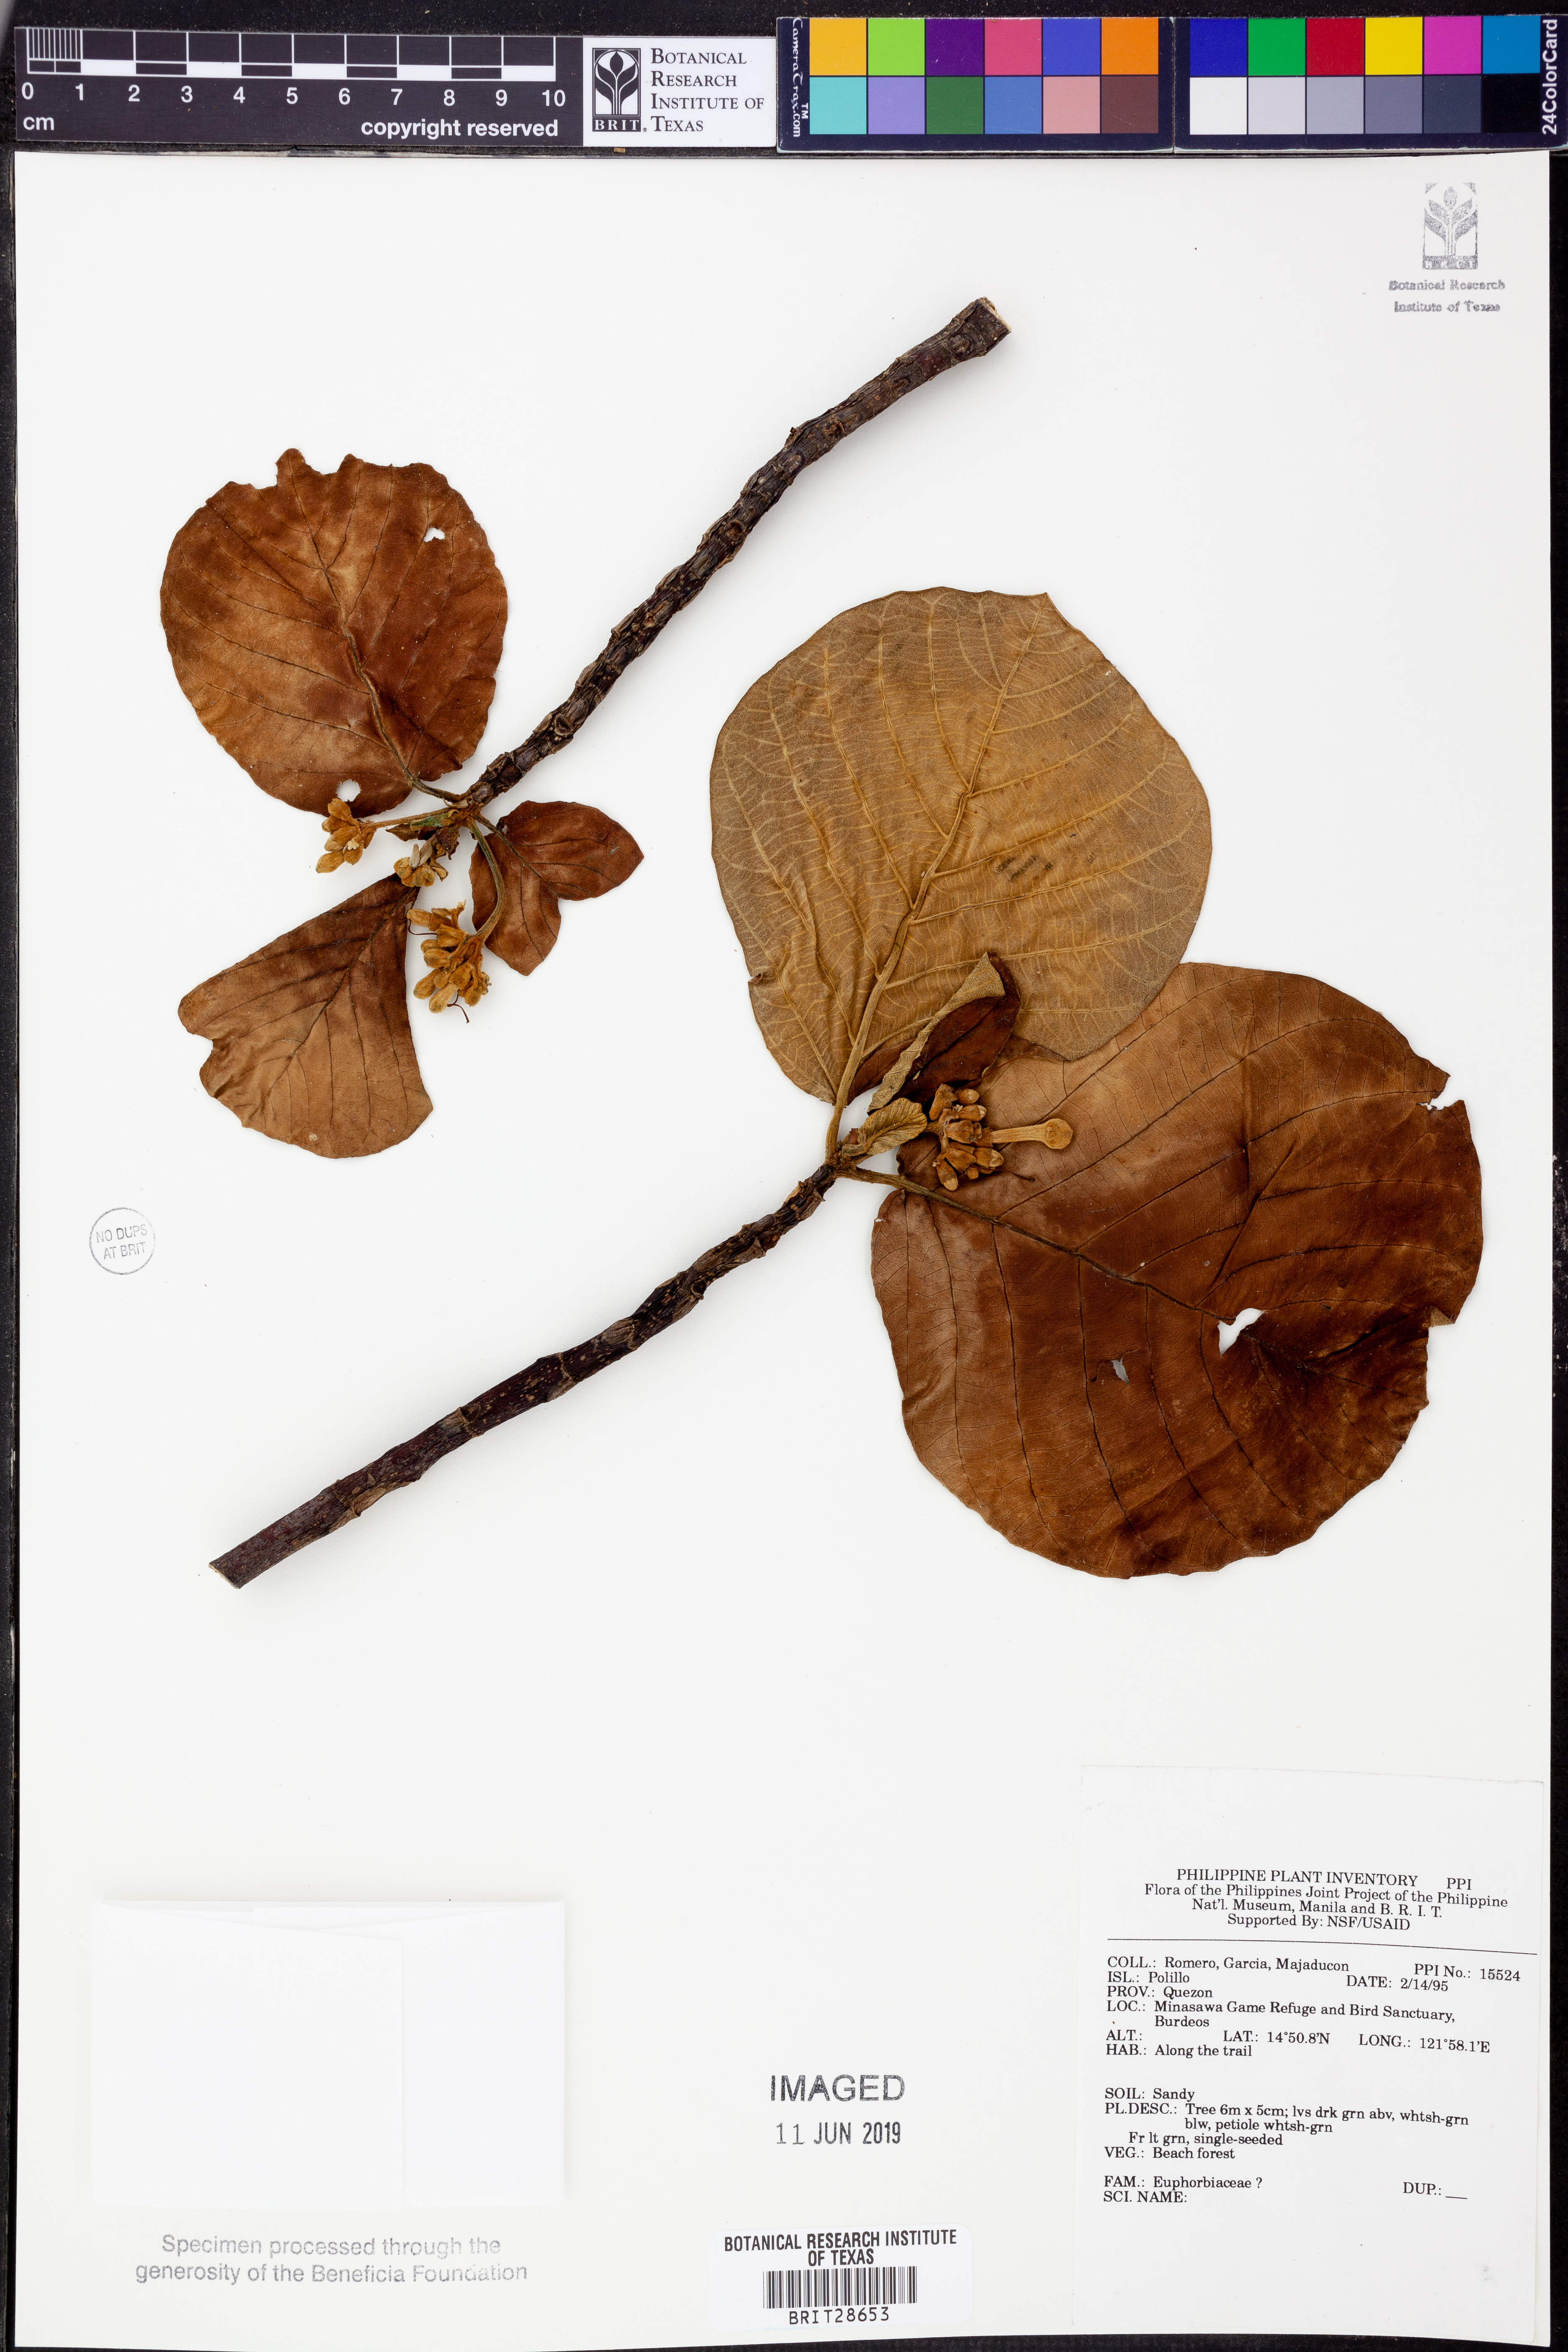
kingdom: Plantae
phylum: Tracheophyta
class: Magnoliopsida
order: Malpighiales
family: Euphorbiaceae
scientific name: Euphorbiaceae
